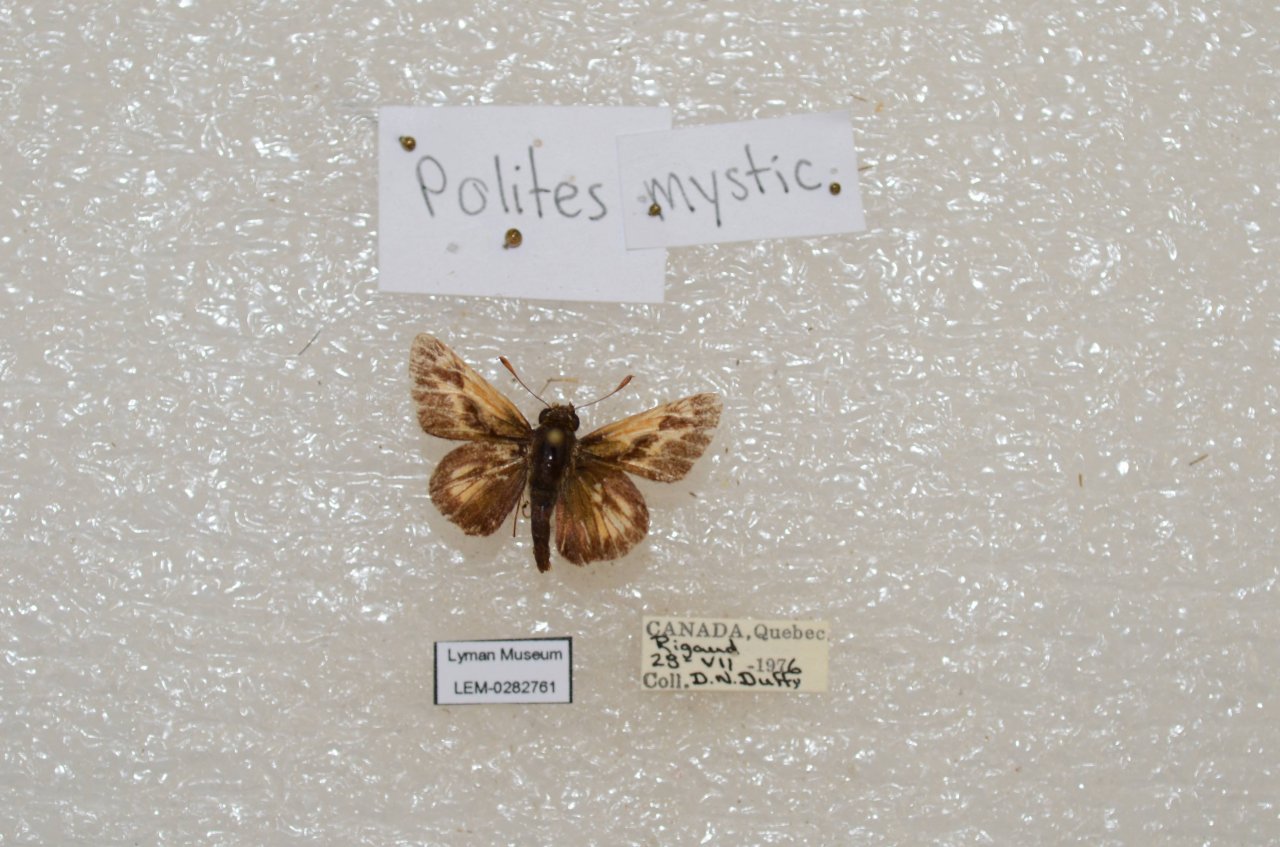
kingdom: Animalia
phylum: Arthropoda
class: Insecta
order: Lepidoptera
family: Hesperiidae
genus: Polites
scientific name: Polites
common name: Long Dash Skipper
